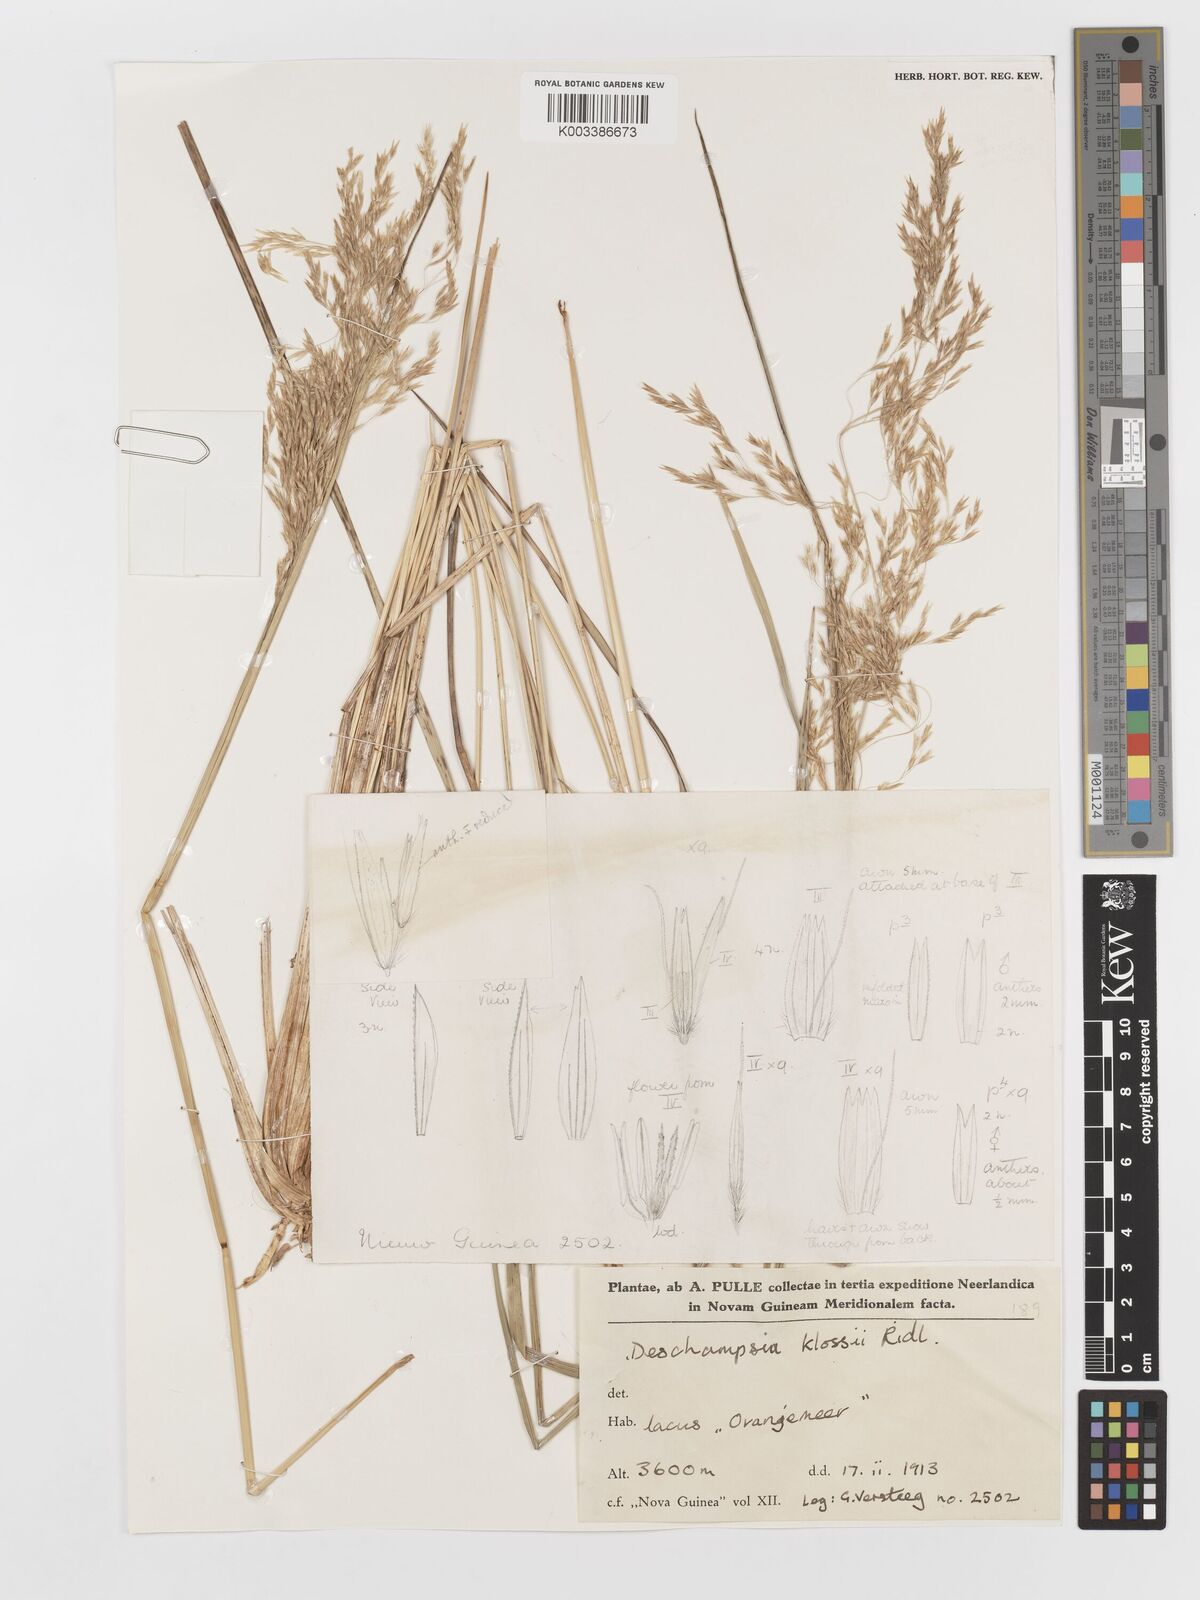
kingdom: Plantae
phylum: Tracheophyta
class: Liliopsida
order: Poales
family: Poaceae
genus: Deschampsia
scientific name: Deschampsia klossii
